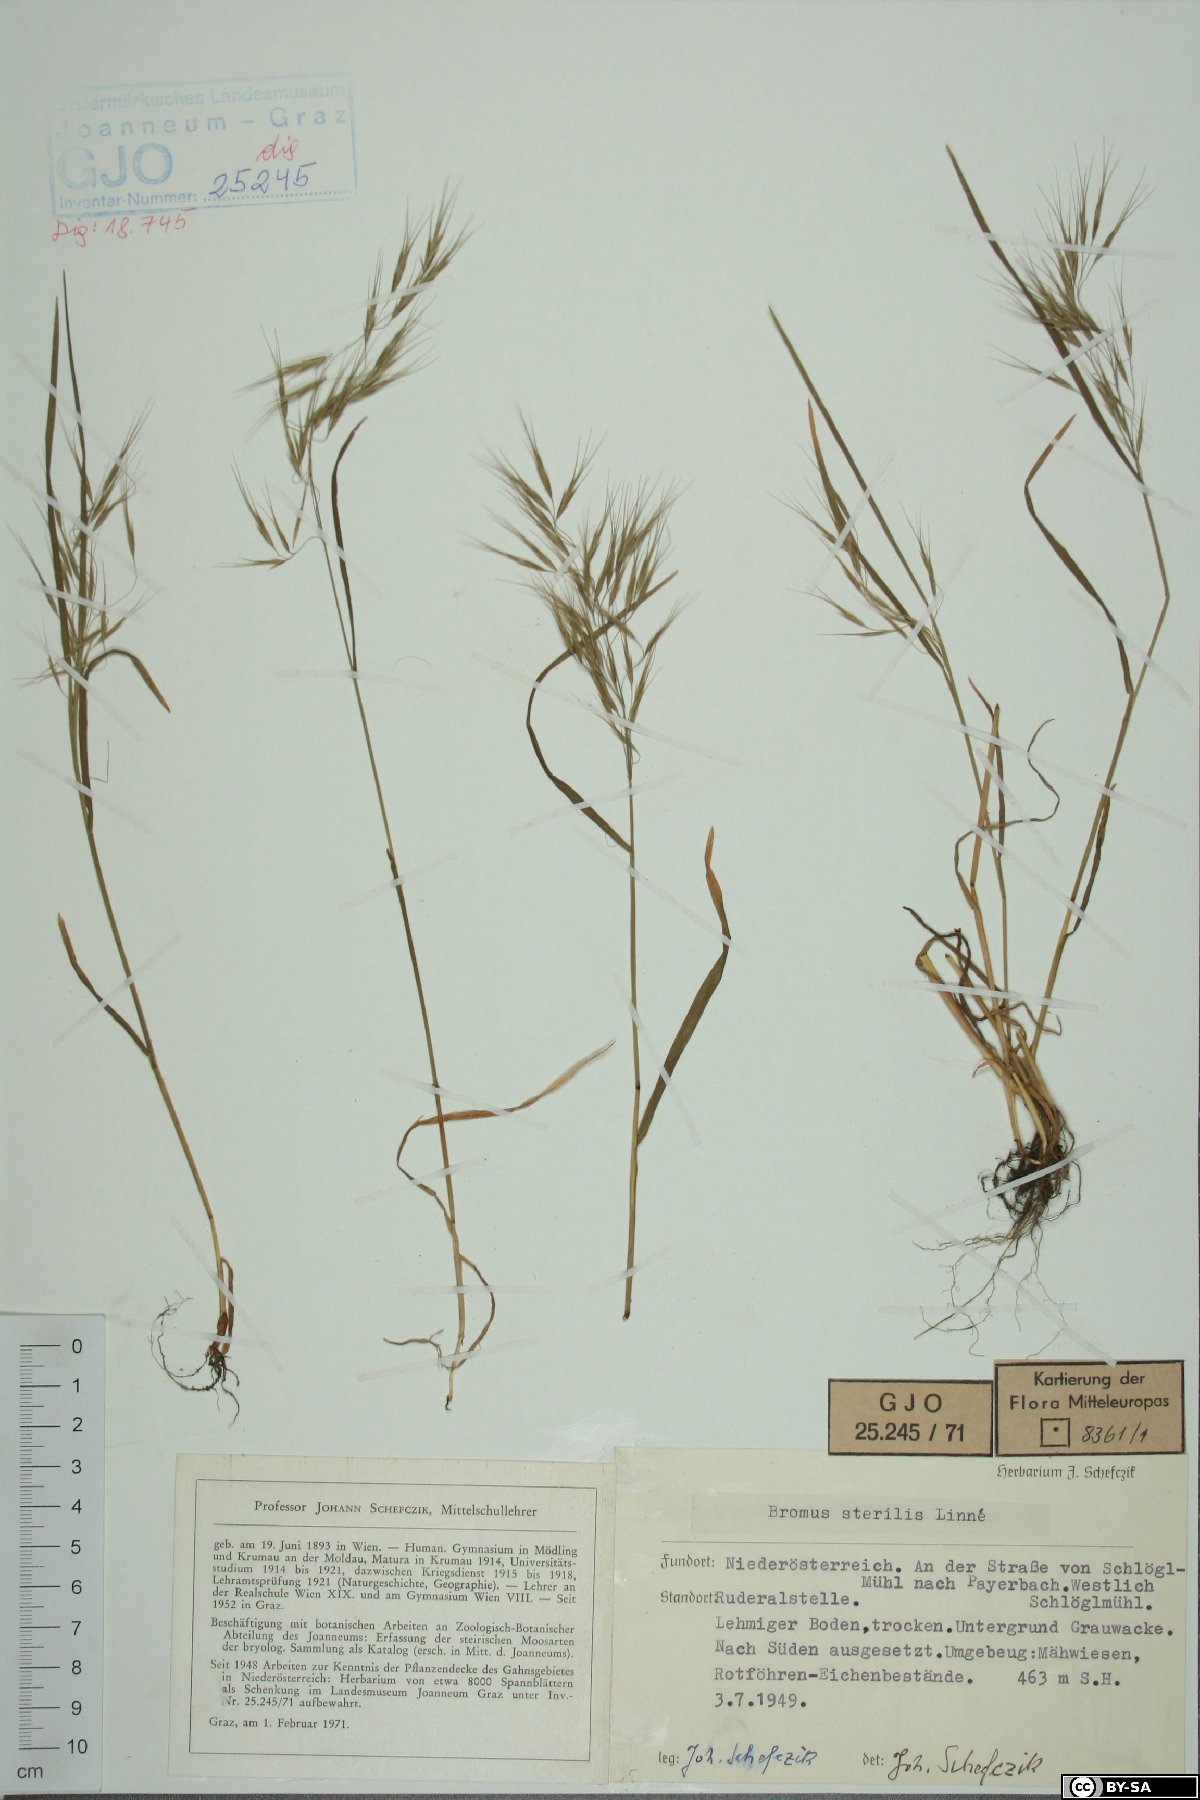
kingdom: Plantae
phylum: Tracheophyta
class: Liliopsida
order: Poales
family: Poaceae
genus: Bromus
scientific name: Bromus sterilis
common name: Poverty brome
